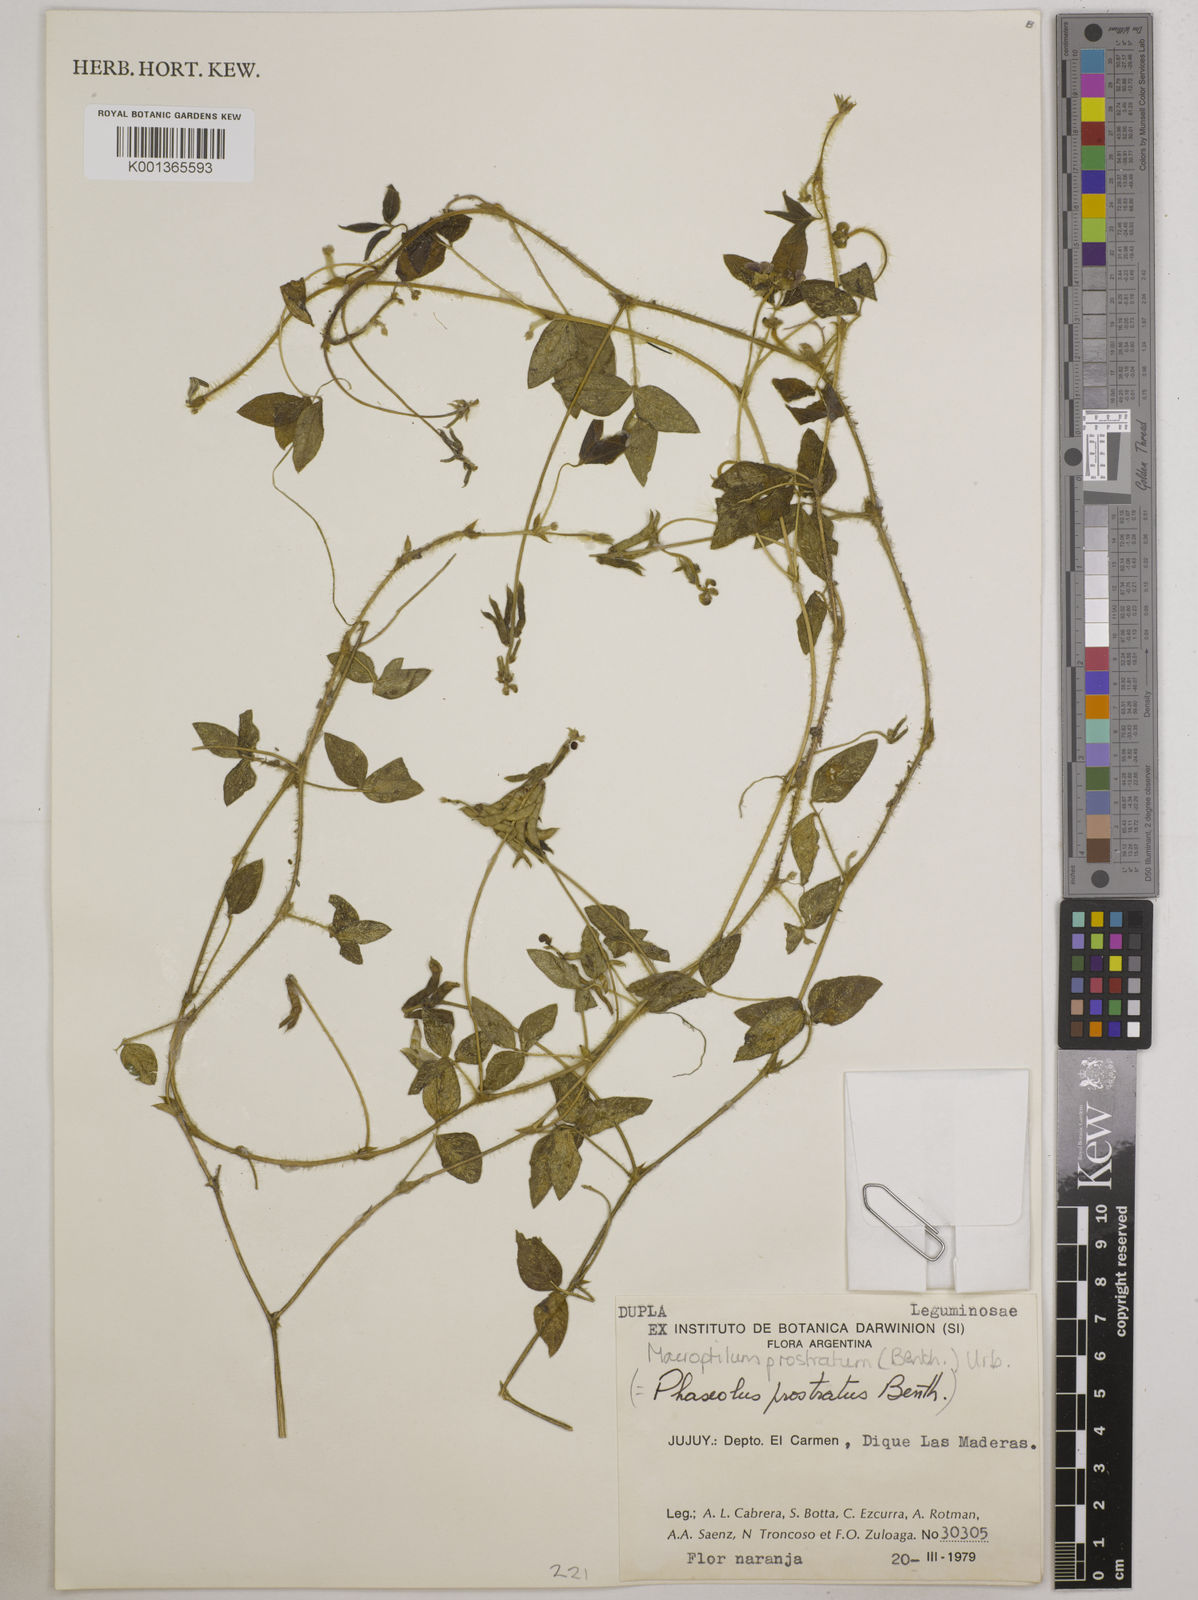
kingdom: Plantae
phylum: Tracheophyta
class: Magnoliopsida
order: Fabales
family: Fabaceae
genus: Macroptilium
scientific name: Macroptilium prostratum
